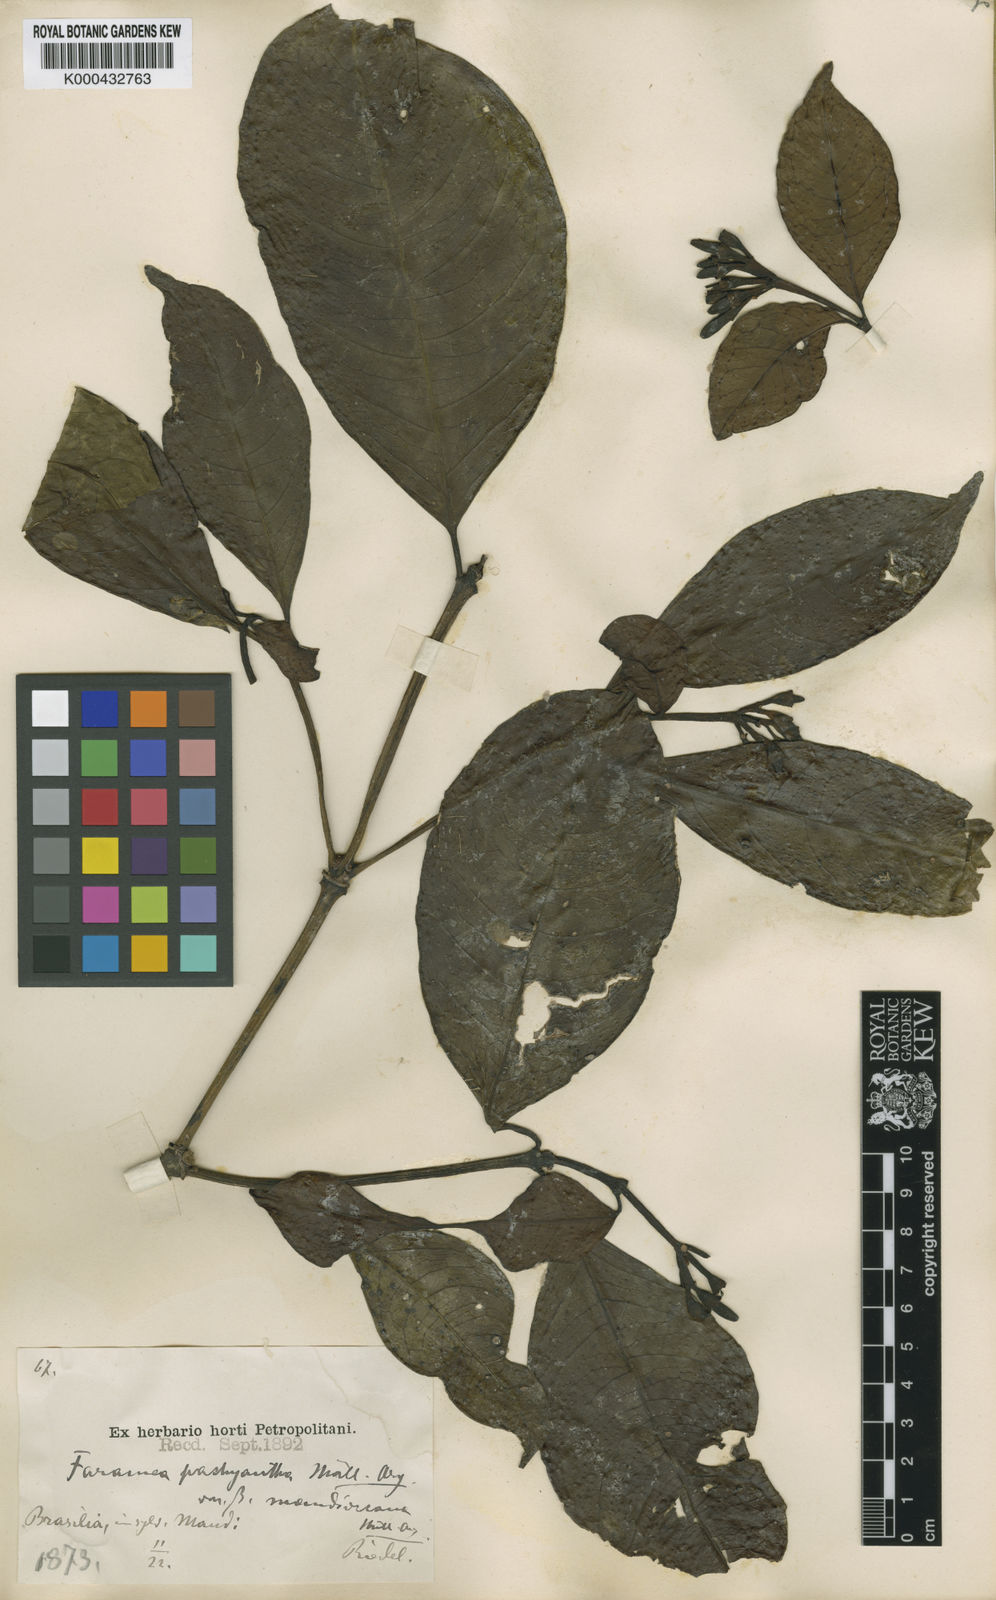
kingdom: Plantae
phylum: Tracheophyta
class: Magnoliopsida
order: Gentianales
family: Rubiaceae
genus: Faramea
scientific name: Faramea
